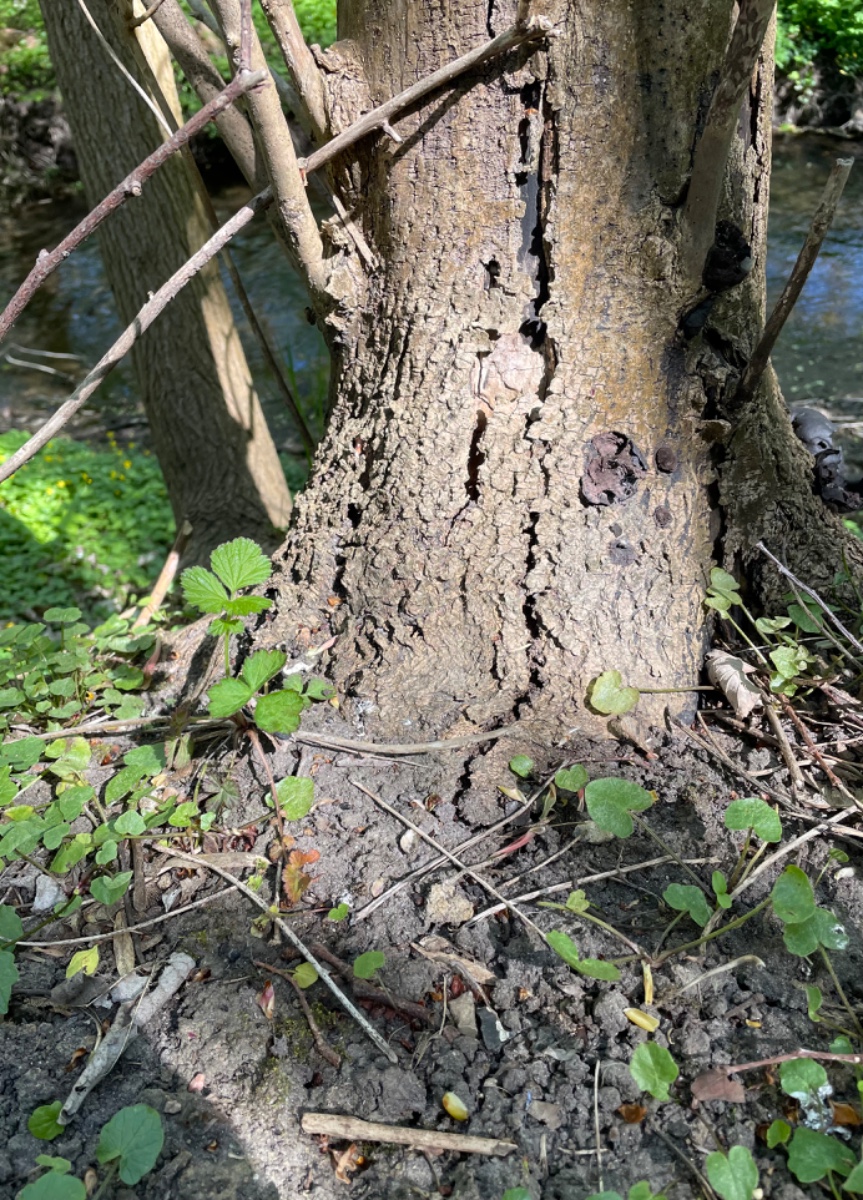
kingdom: Fungi
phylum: Ascomycota
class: Sordariomycetes
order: Xylariales
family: Hypoxylaceae
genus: Daldinia
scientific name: Daldinia concentrica
